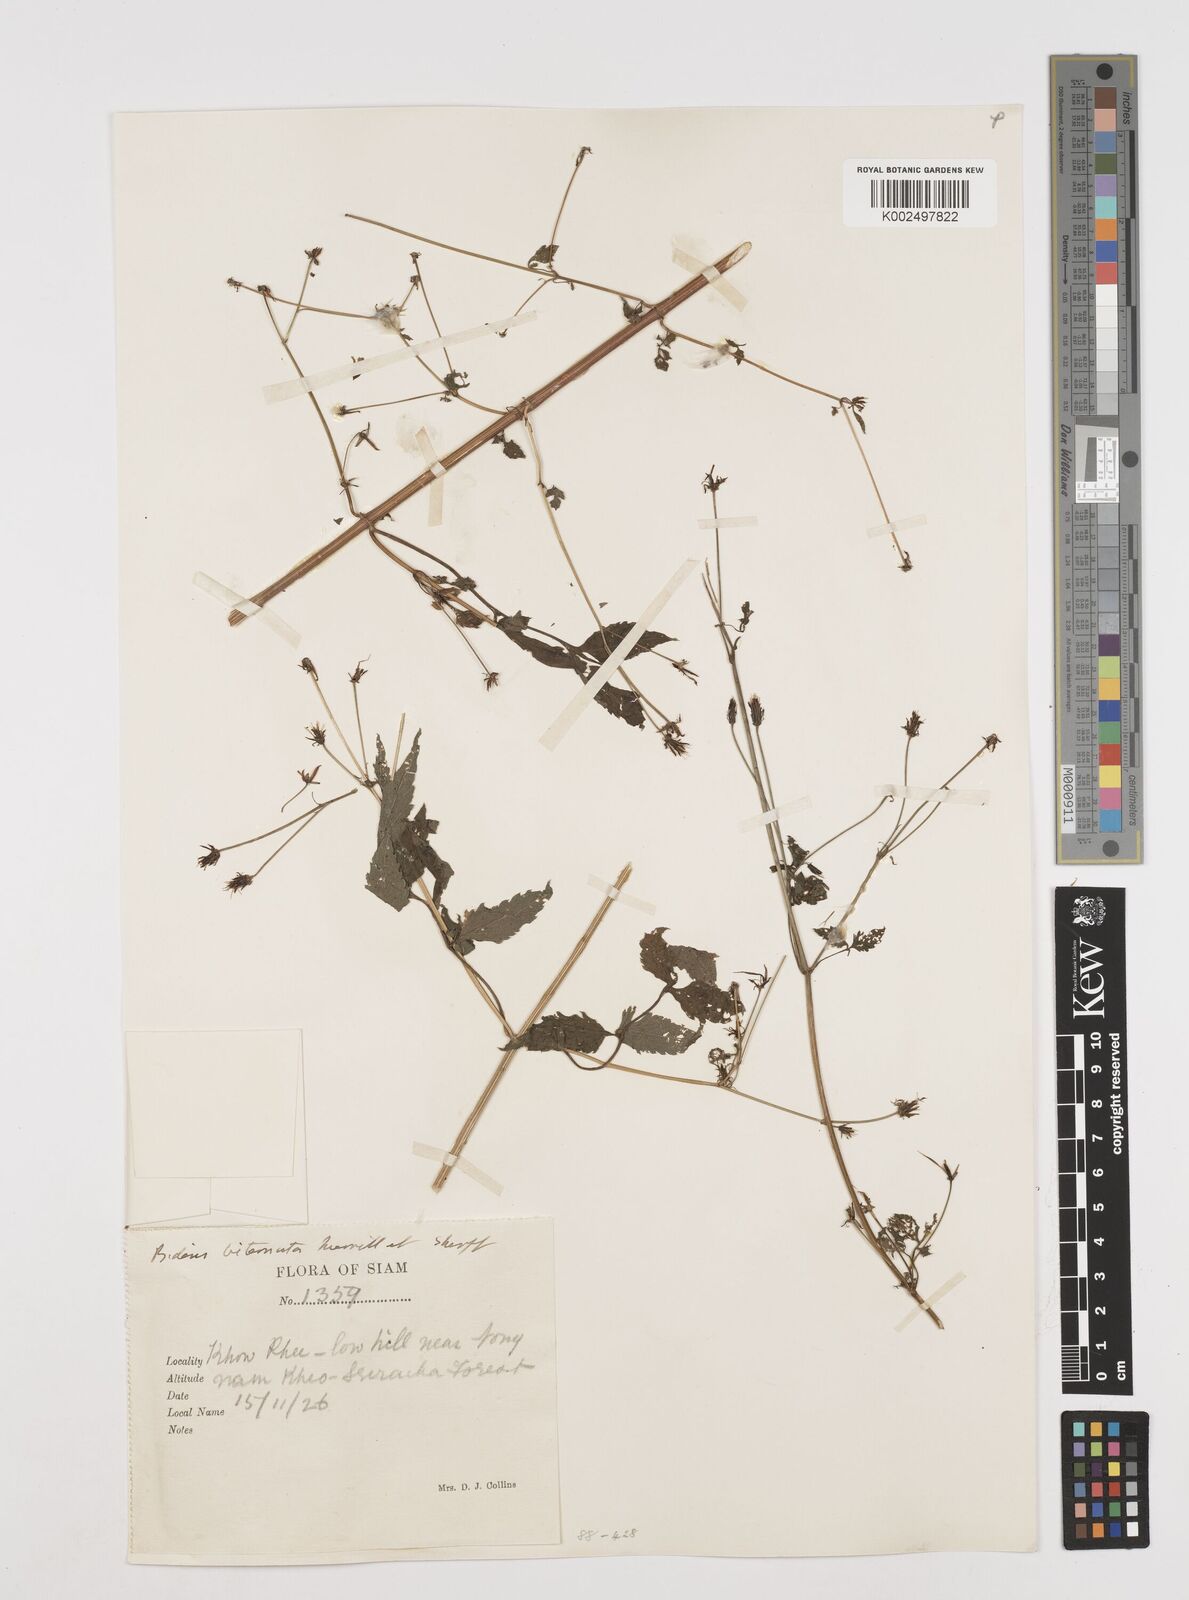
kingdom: Plantae
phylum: Tracheophyta
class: Magnoliopsida
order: Asterales
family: Asteraceae
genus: Bidens
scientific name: Bidens biternata
